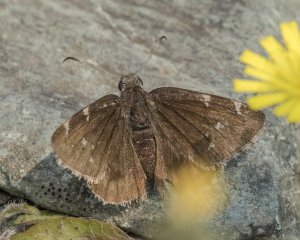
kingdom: Animalia
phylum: Arthropoda
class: Insecta
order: Lepidoptera
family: Hesperiidae
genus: Autochton
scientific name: Autochton
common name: Northern Cloudywing
